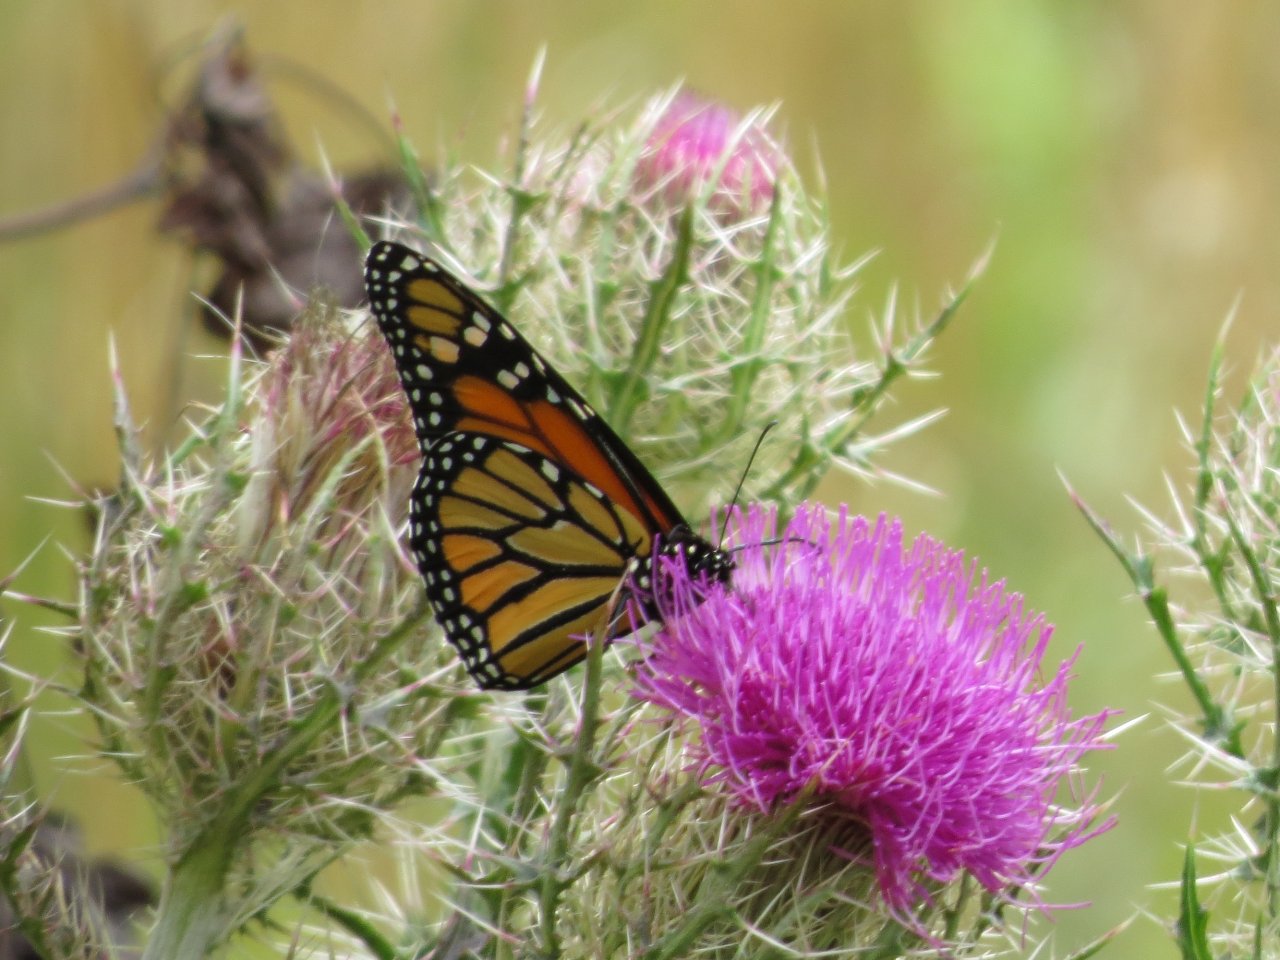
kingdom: Animalia
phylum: Arthropoda
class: Insecta
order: Lepidoptera
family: Nymphalidae
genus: Danaus
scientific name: Danaus plexippus
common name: Monarch
